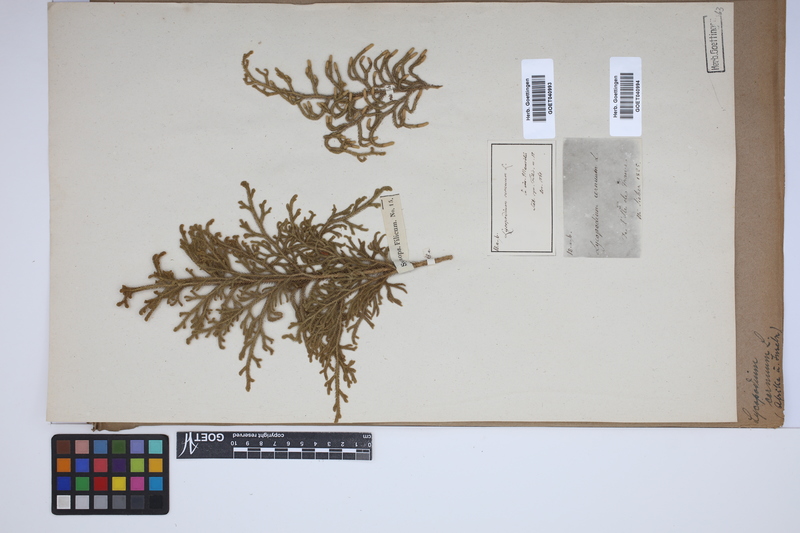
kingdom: Plantae
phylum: Tracheophyta
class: Lycopodiopsida
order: Lycopodiales
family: Lycopodiaceae
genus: Palhinhaea
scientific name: Palhinhaea cernua
